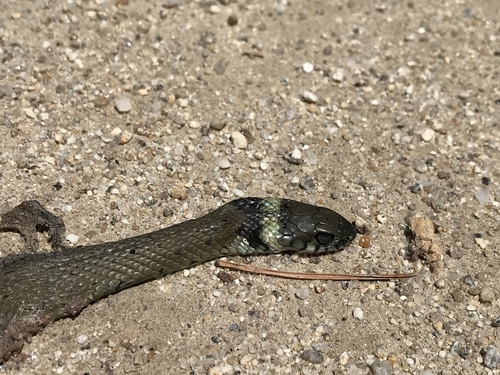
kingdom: Animalia
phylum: Chordata
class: Squamata
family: Colubridae
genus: Natrix
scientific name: Natrix astreptophora
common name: Red-eyed grass snake
